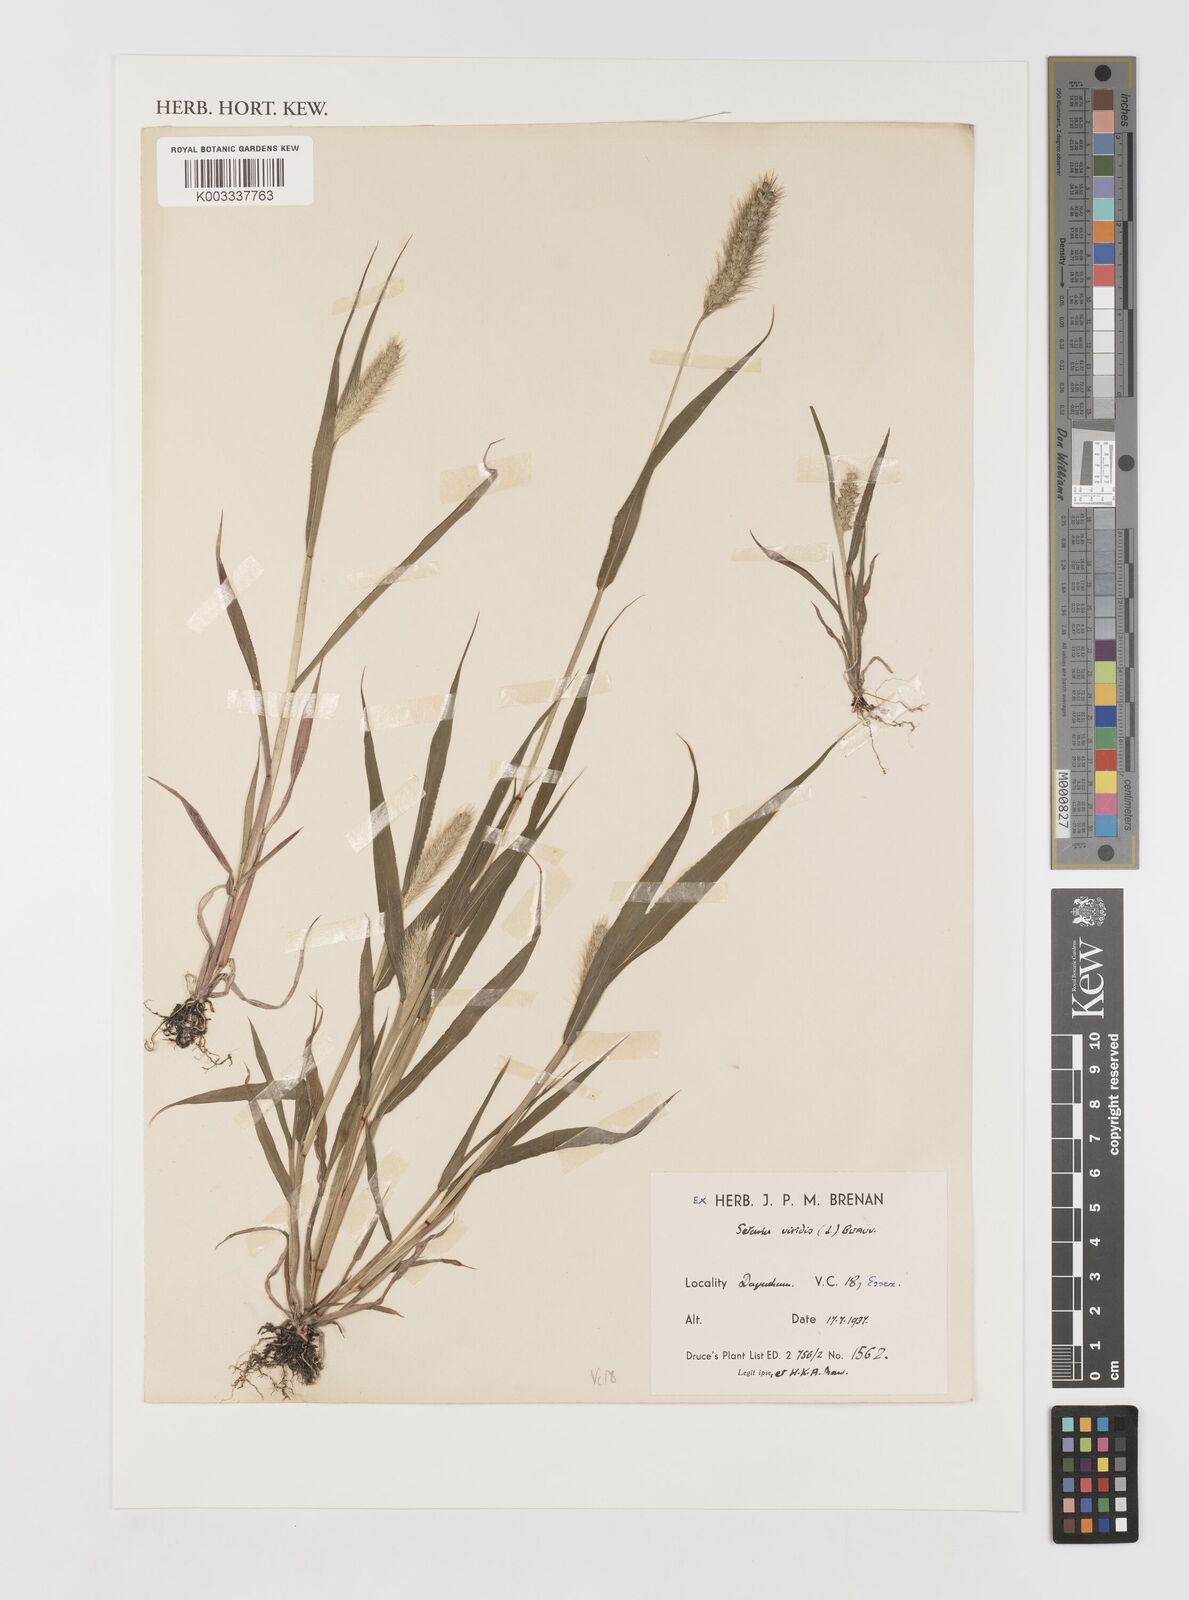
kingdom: Plantae
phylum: Tracheophyta
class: Liliopsida
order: Poales
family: Poaceae
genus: Setaria
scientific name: Setaria viridis
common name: Green bristlegrass
